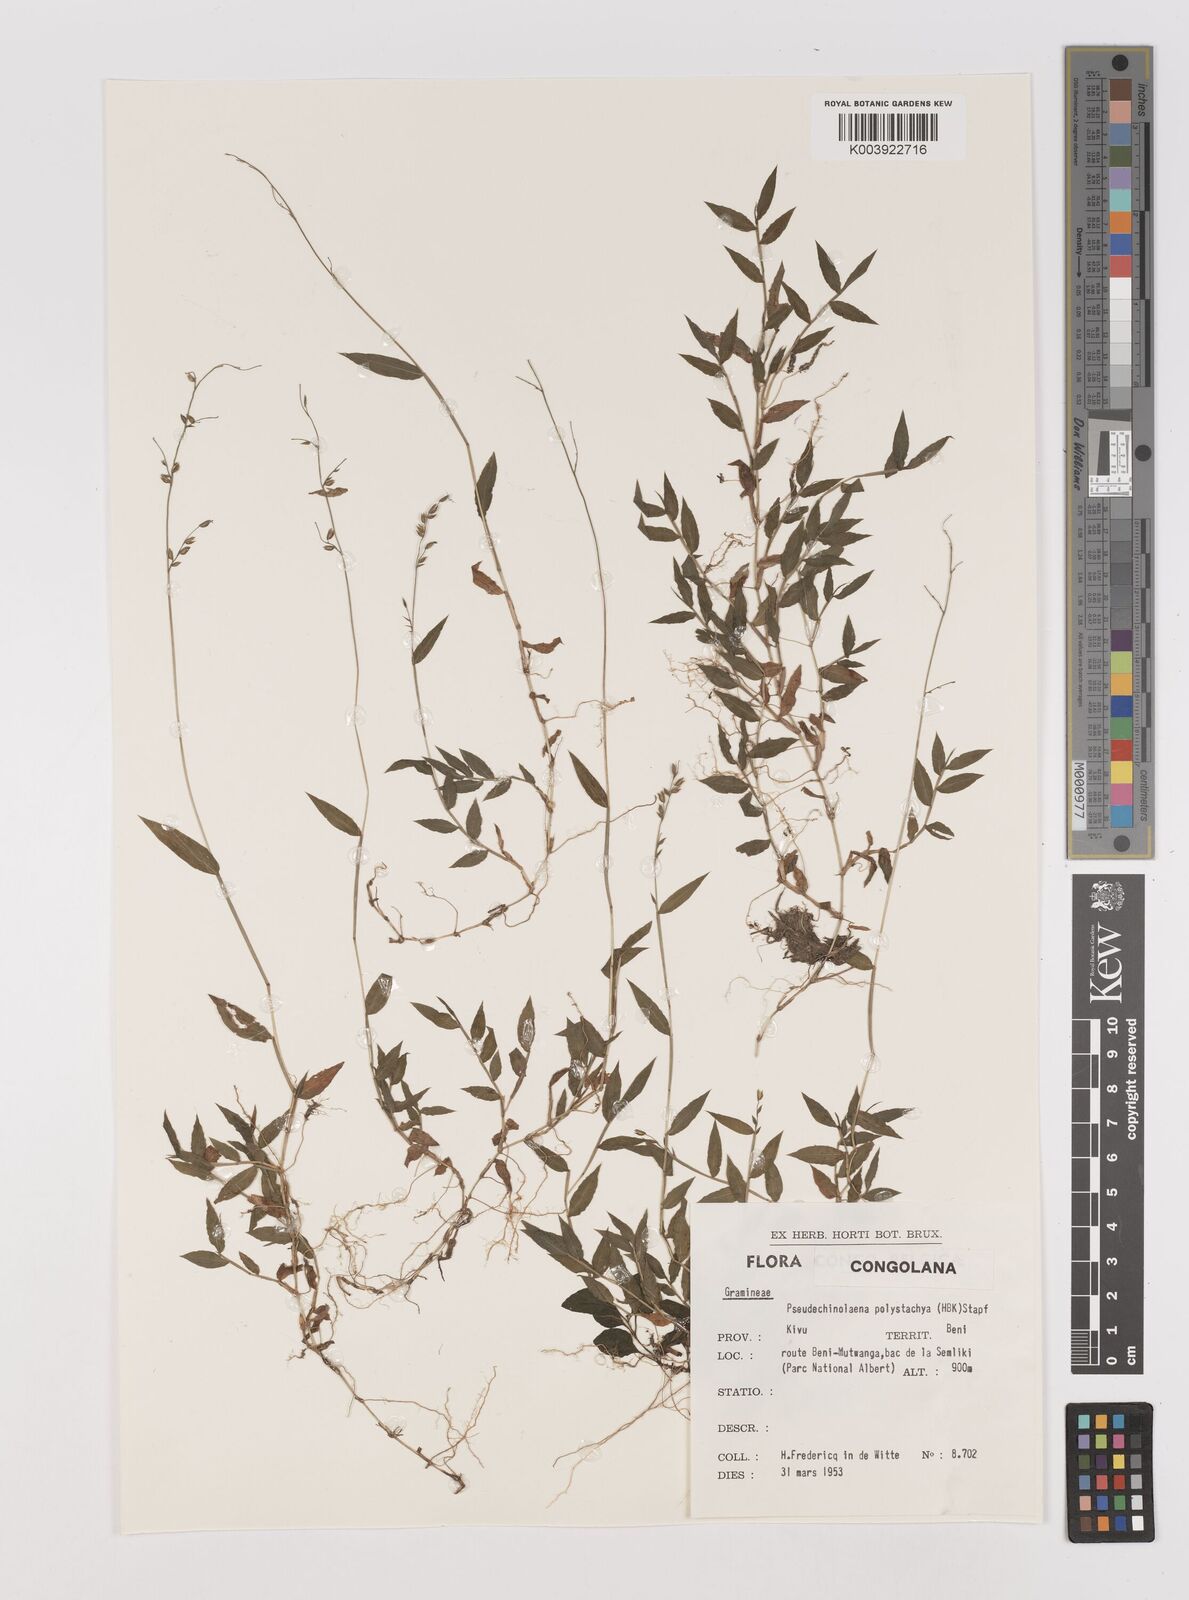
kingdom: Plantae
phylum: Tracheophyta
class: Liliopsida
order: Poales
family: Poaceae
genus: Pseudechinolaena
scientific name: Pseudechinolaena polystachya
